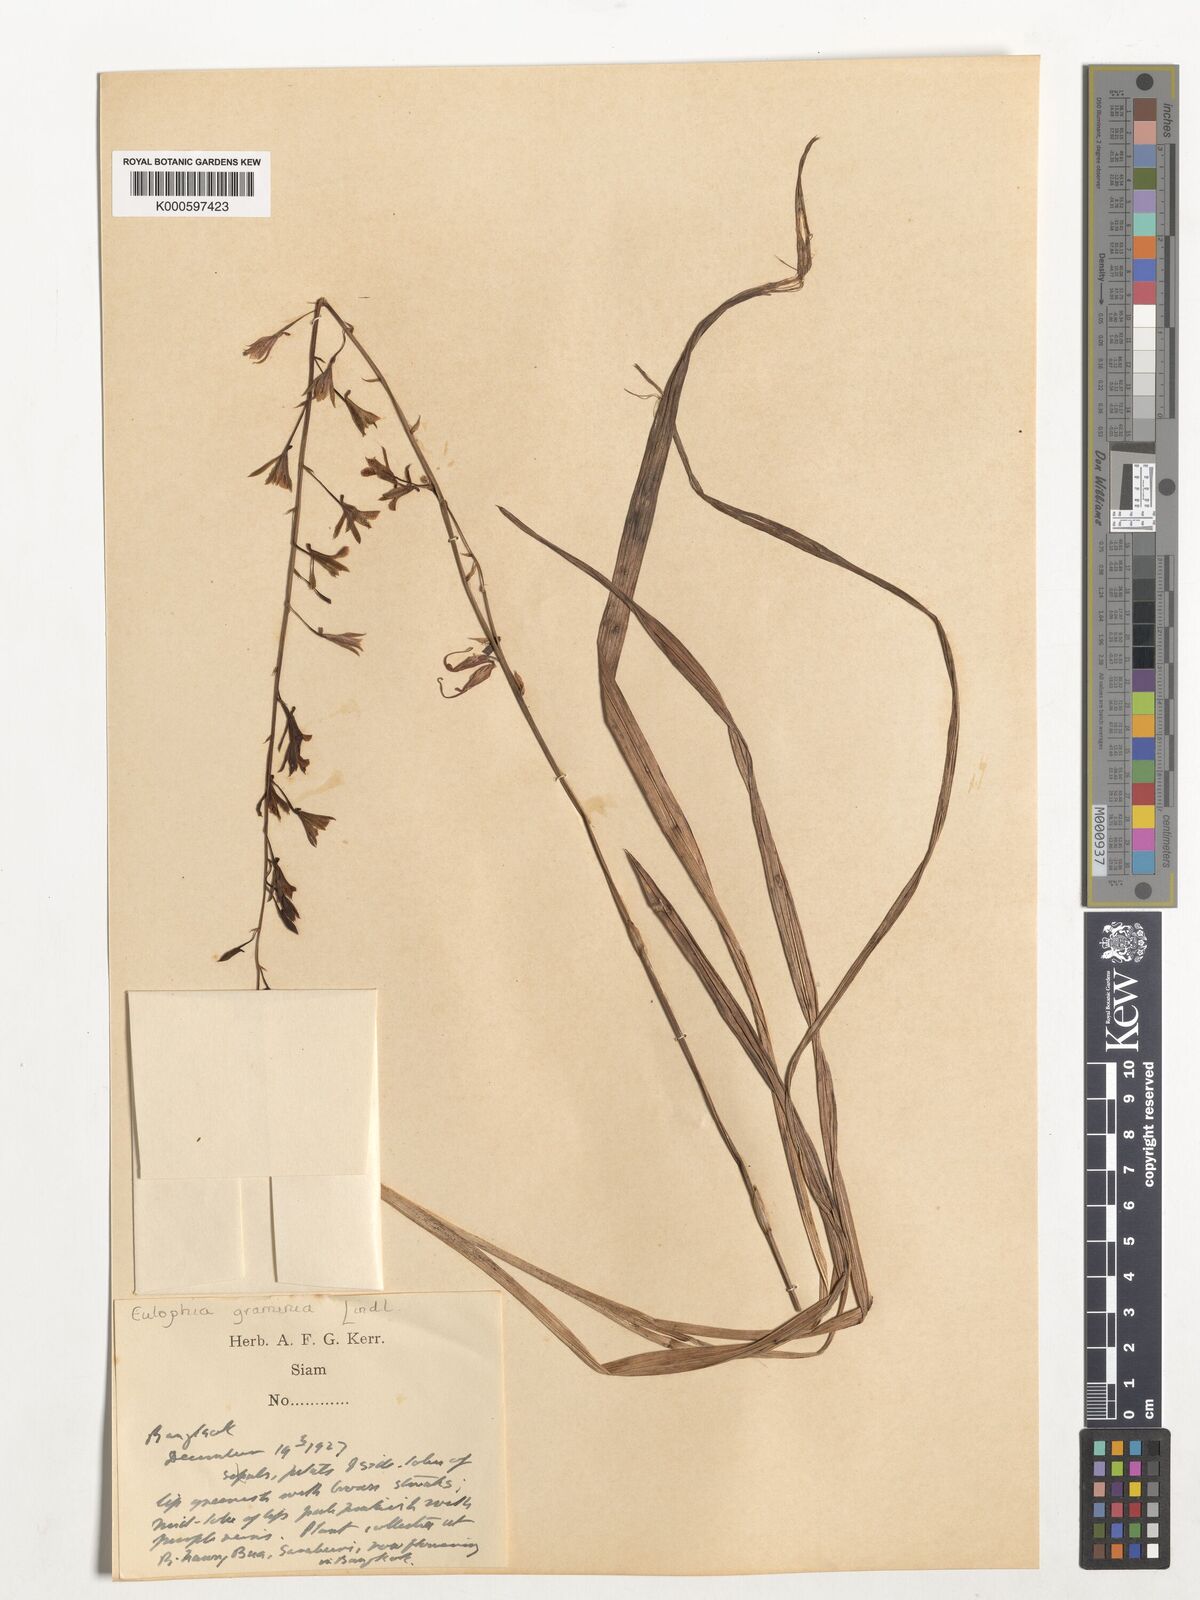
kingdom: Plantae
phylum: Tracheophyta
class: Liliopsida
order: Asparagales
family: Orchidaceae
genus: Eulophia
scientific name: Eulophia graminea
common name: Orchid
